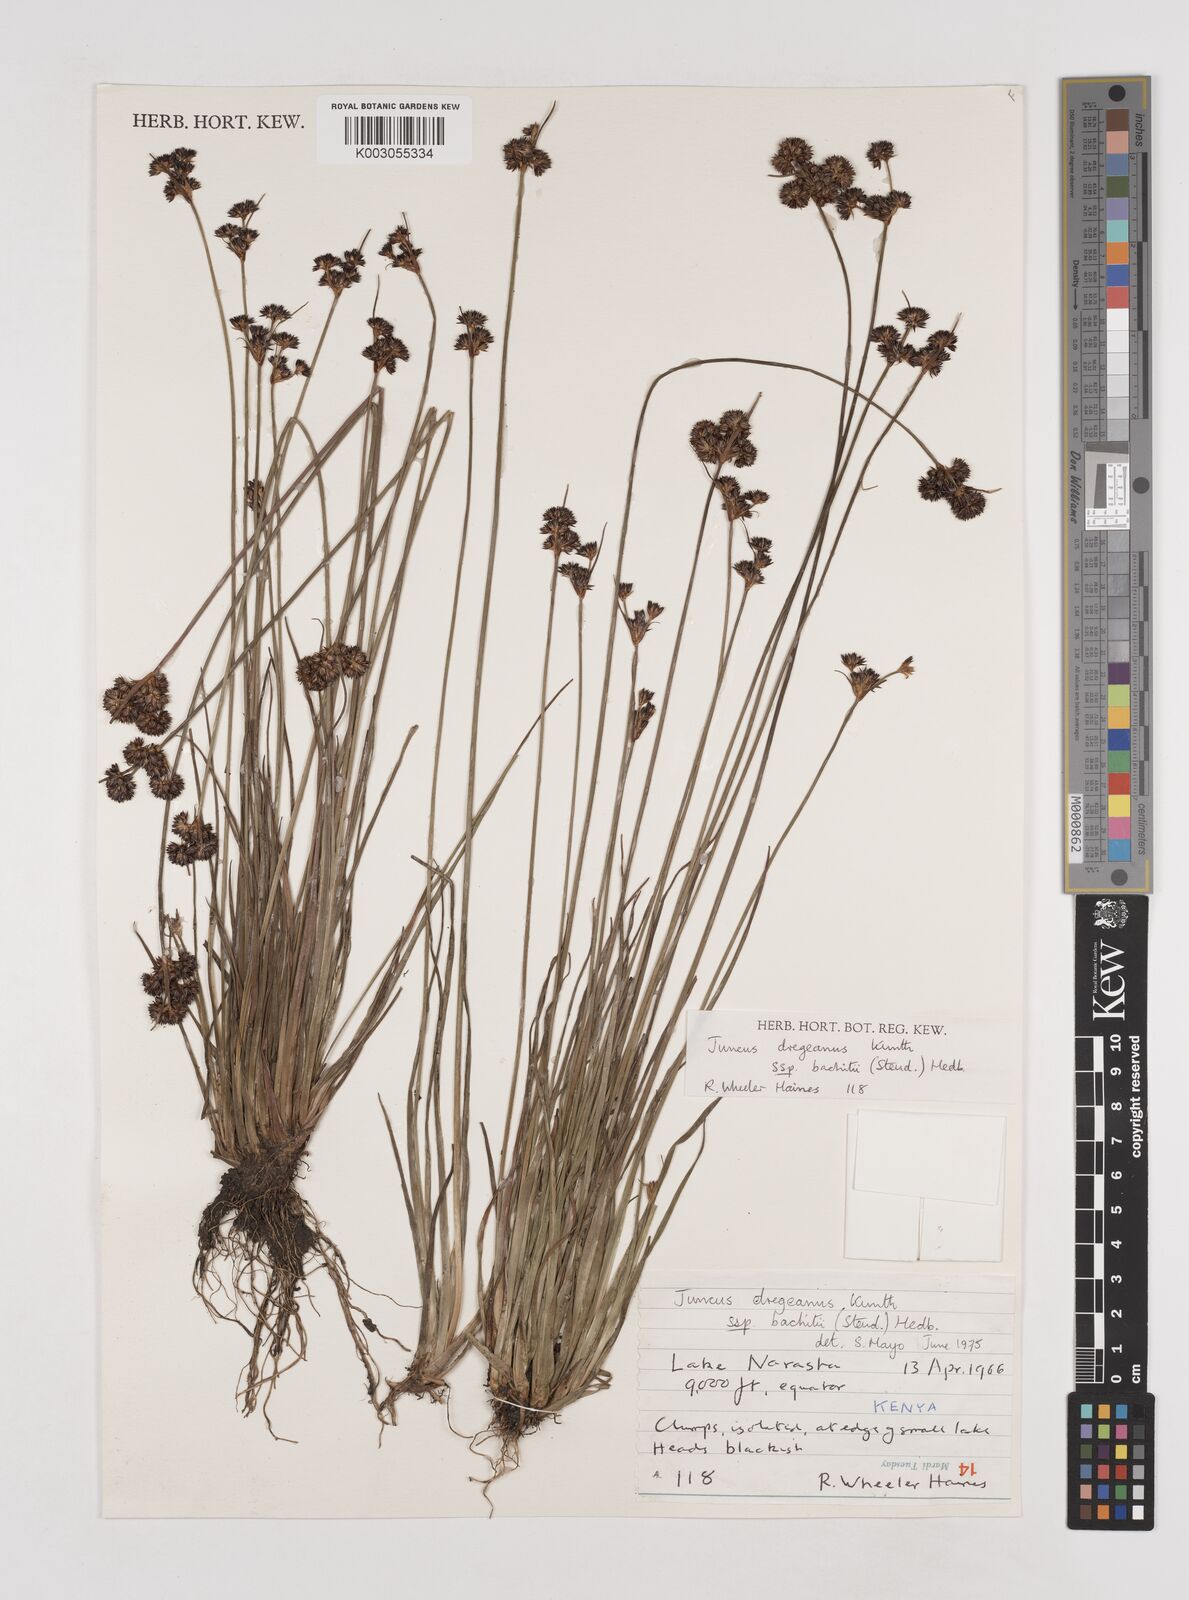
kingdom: Plantae
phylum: Tracheophyta
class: Liliopsida
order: Poales
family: Juncaceae
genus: Juncus
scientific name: Juncus dregeanus
